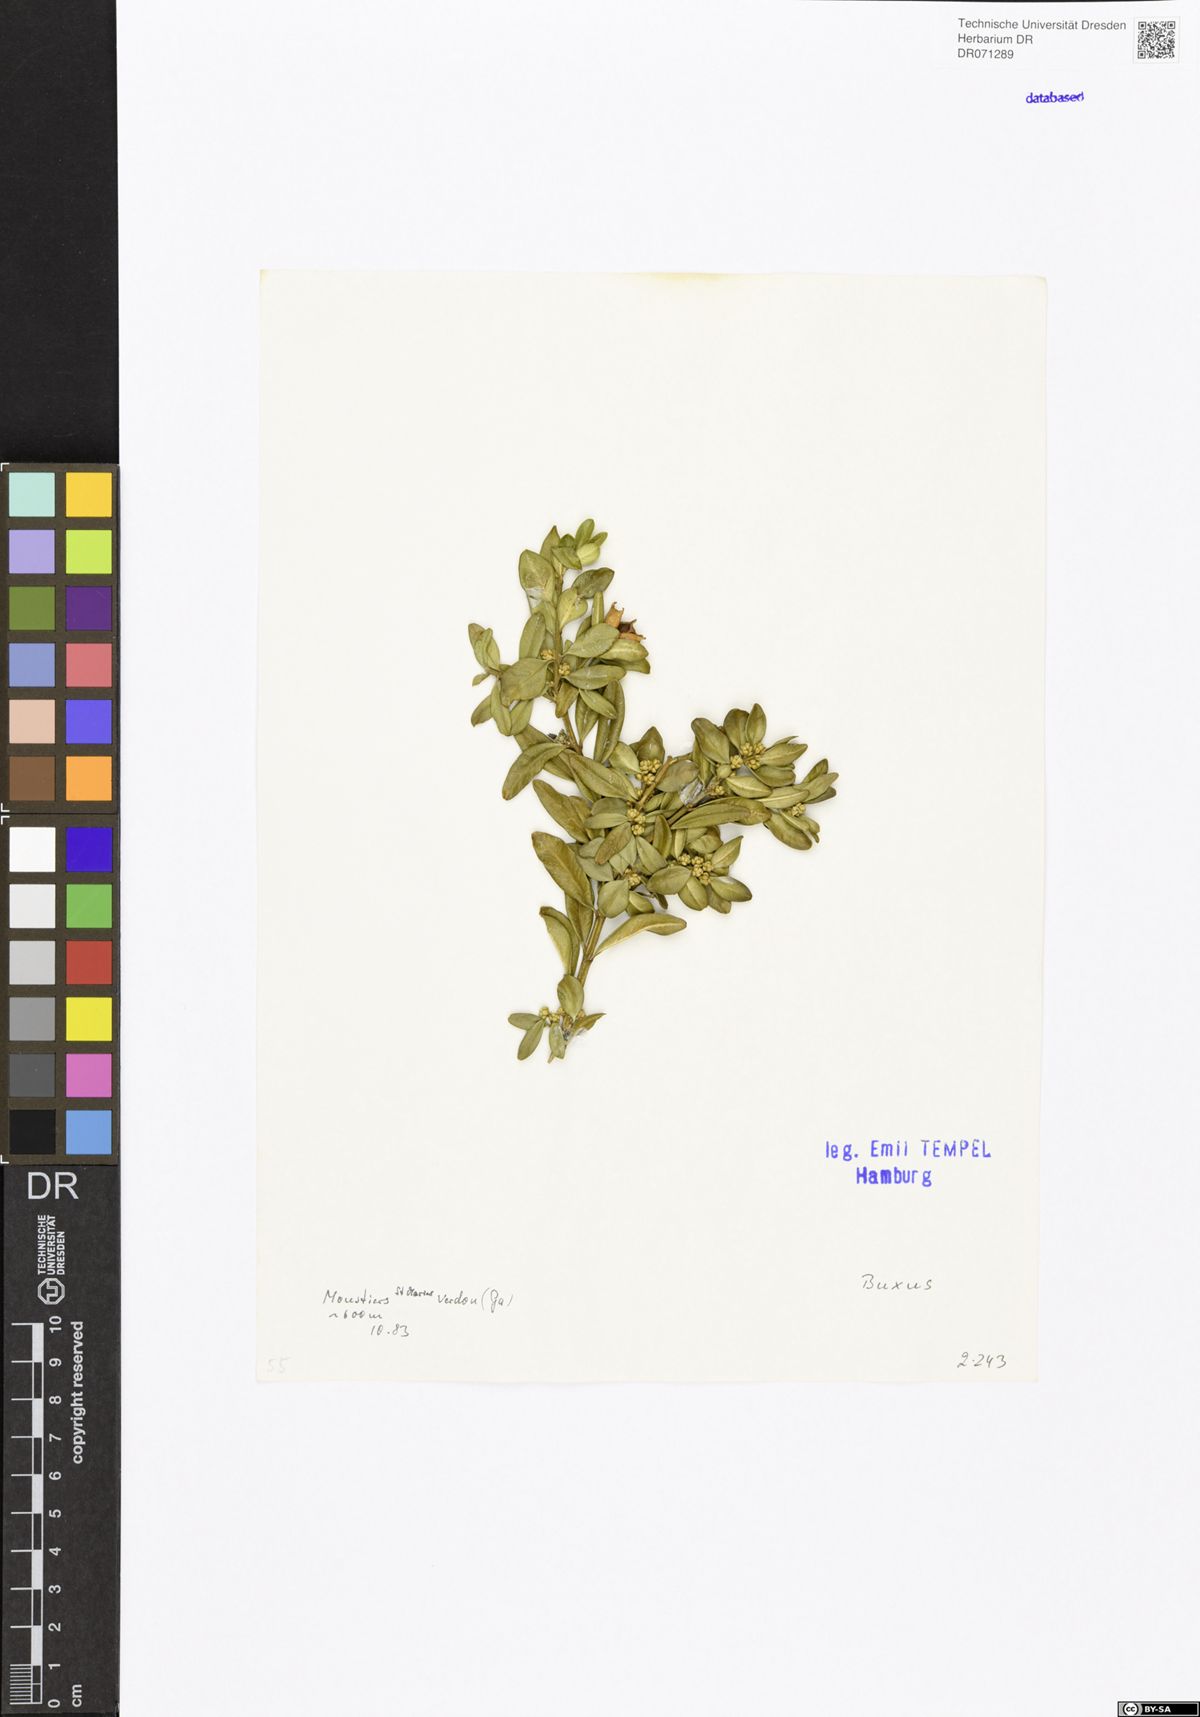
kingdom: Plantae
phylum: Tracheophyta
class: Magnoliopsida
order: Buxales
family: Buxaceae
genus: Buxus
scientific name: Buxus
